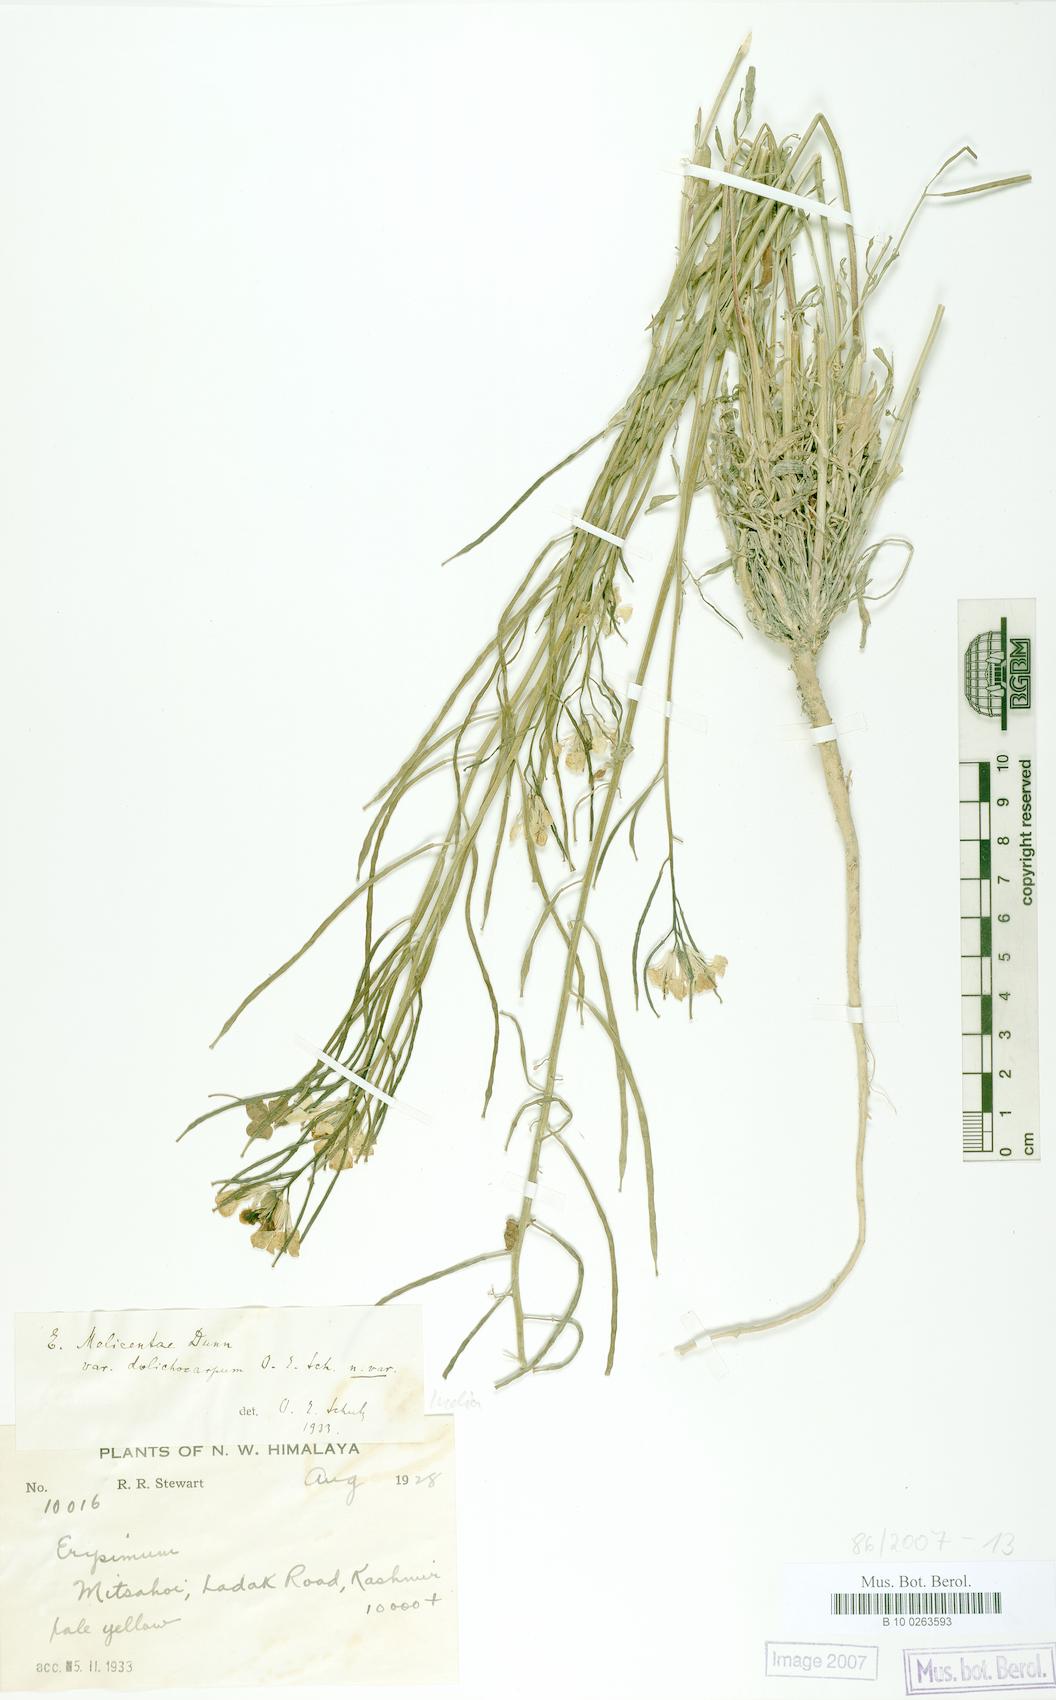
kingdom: Plantae
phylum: Tracheophyta
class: Magnoliopsida
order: Brassicales
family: Brassicaceae
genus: Erysimum
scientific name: Erysimum melicentae
